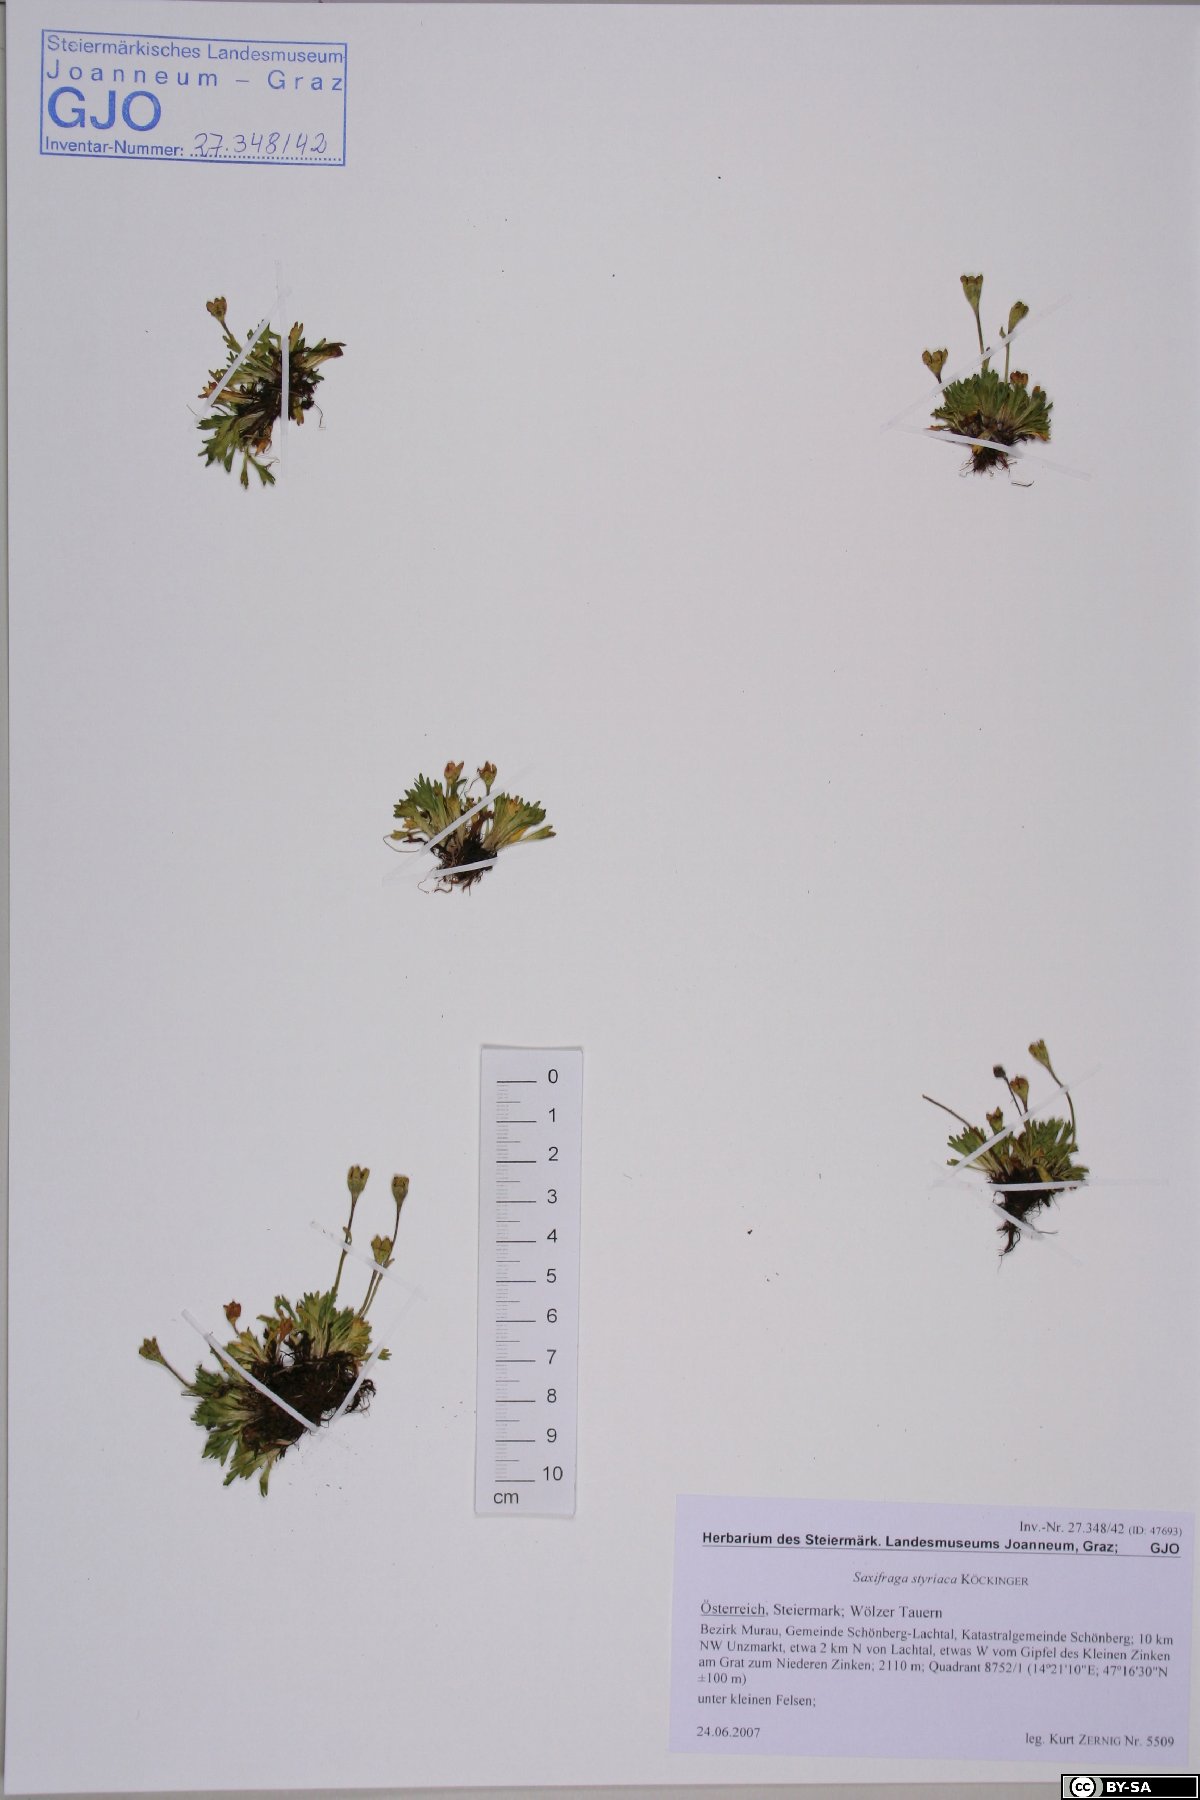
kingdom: Plantae
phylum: Tracheophyta
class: Magnoliopsida
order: Saxifragales
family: Saxifragaceae
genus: Saxifraga
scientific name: Saxifraga styriaca
